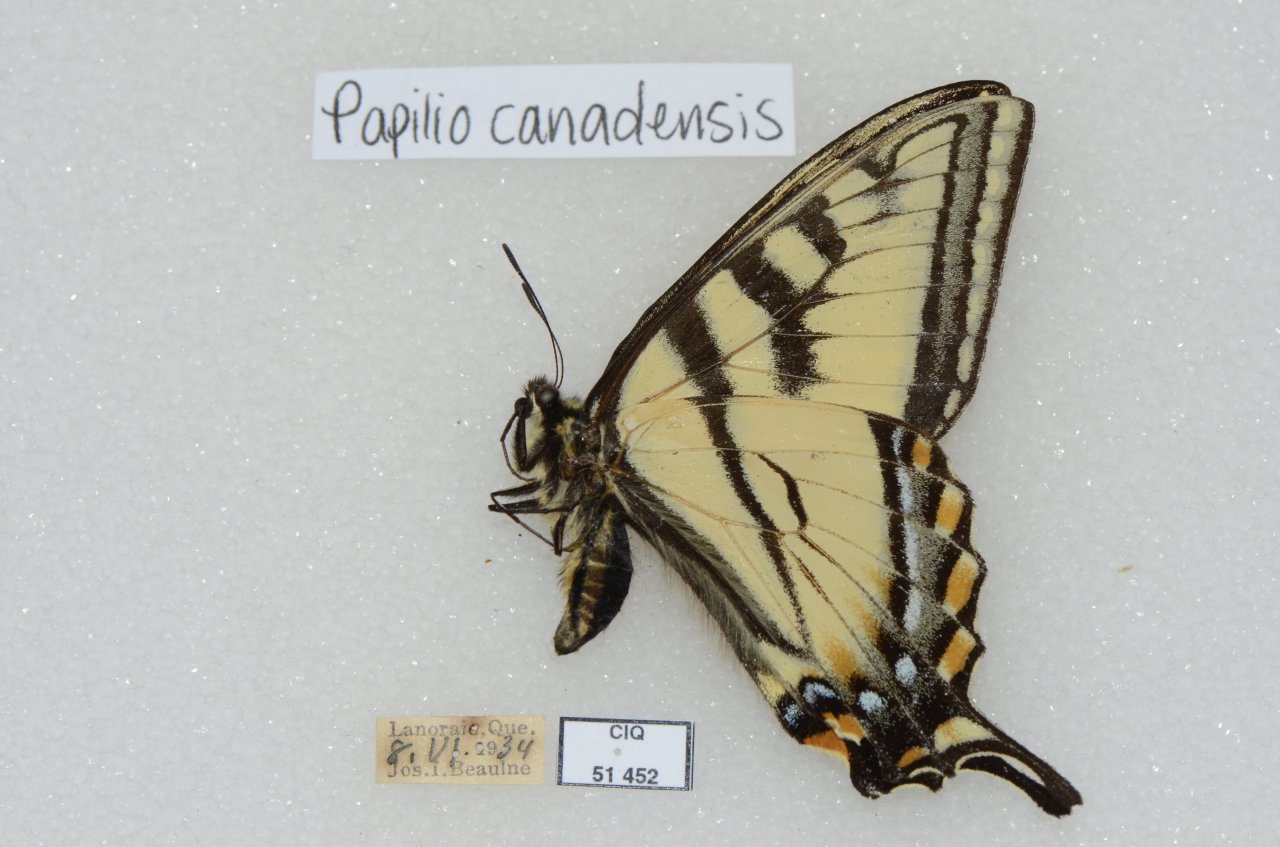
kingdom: Animalia
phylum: Arthropoda
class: Insecta
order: Lepidoptera
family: Papilionidae
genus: Pterourus
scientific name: Pterourus canadensis
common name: Canadian Tiger Swallowtail
